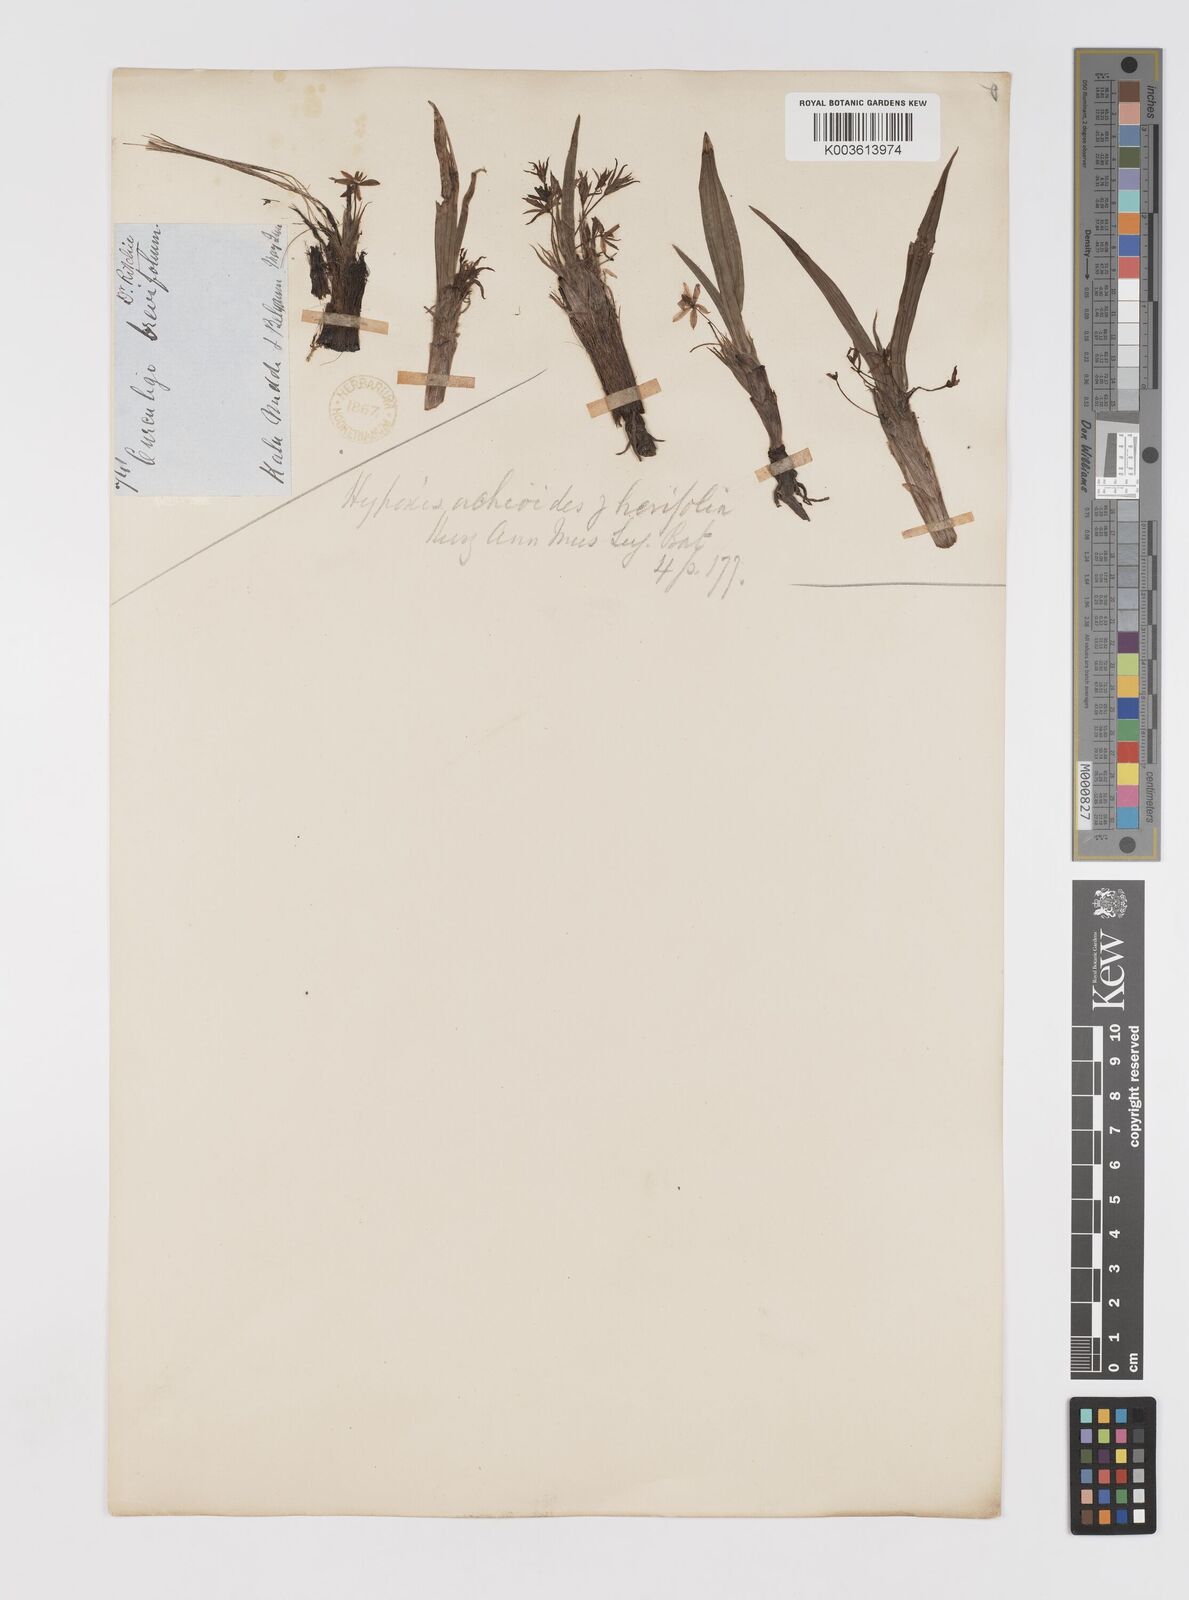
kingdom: Plantae
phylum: Tracheophyta
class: Liliopsida
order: Asparagales
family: Hypoxidaceae
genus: Curculigo
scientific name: Curculigo orchioides
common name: Golden eye-grass
